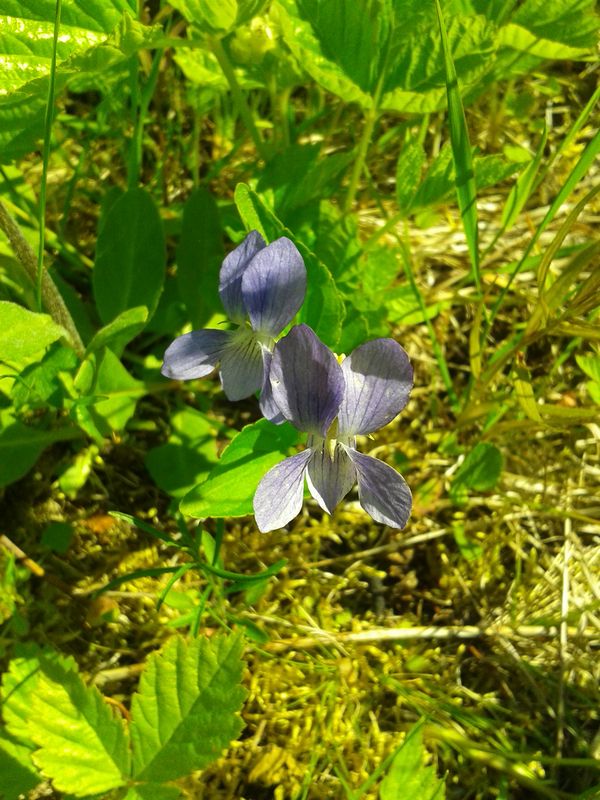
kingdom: Plantae
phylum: Tracheophyta
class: Magnoliopsida
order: Malpighiales
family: Violaceae
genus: Viola
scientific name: Viola canina
